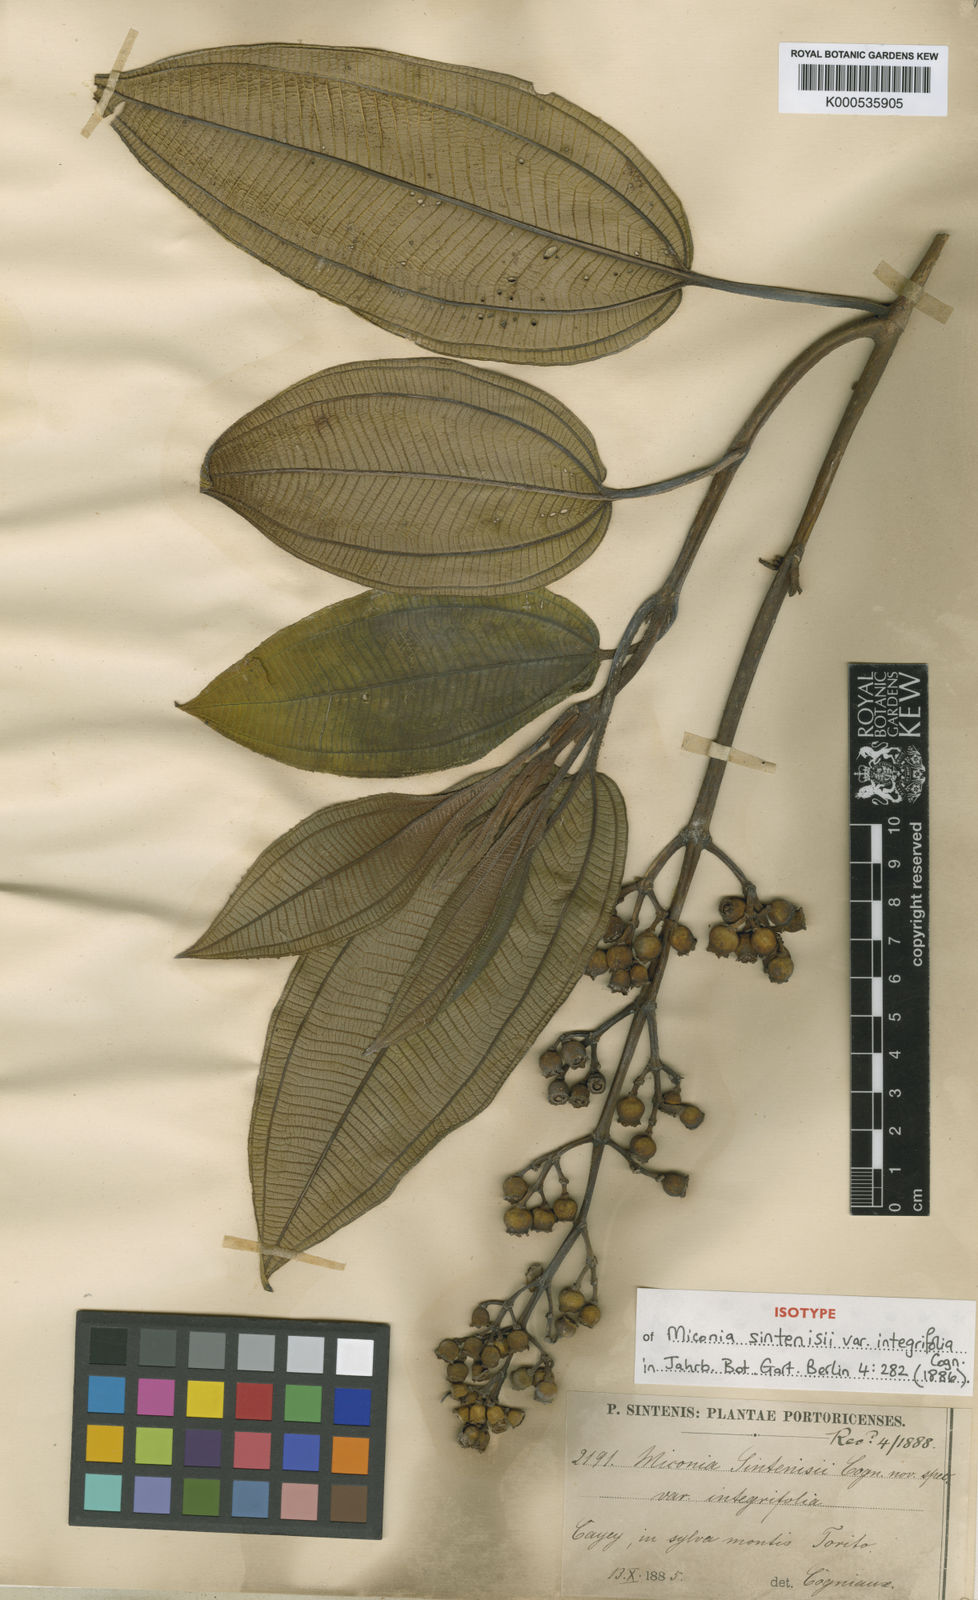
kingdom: Plantae
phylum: Tracheophyta
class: Magnoliopsida
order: Myrtales
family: Melastomataceae
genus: Miconia
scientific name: Miconia sintenisii
